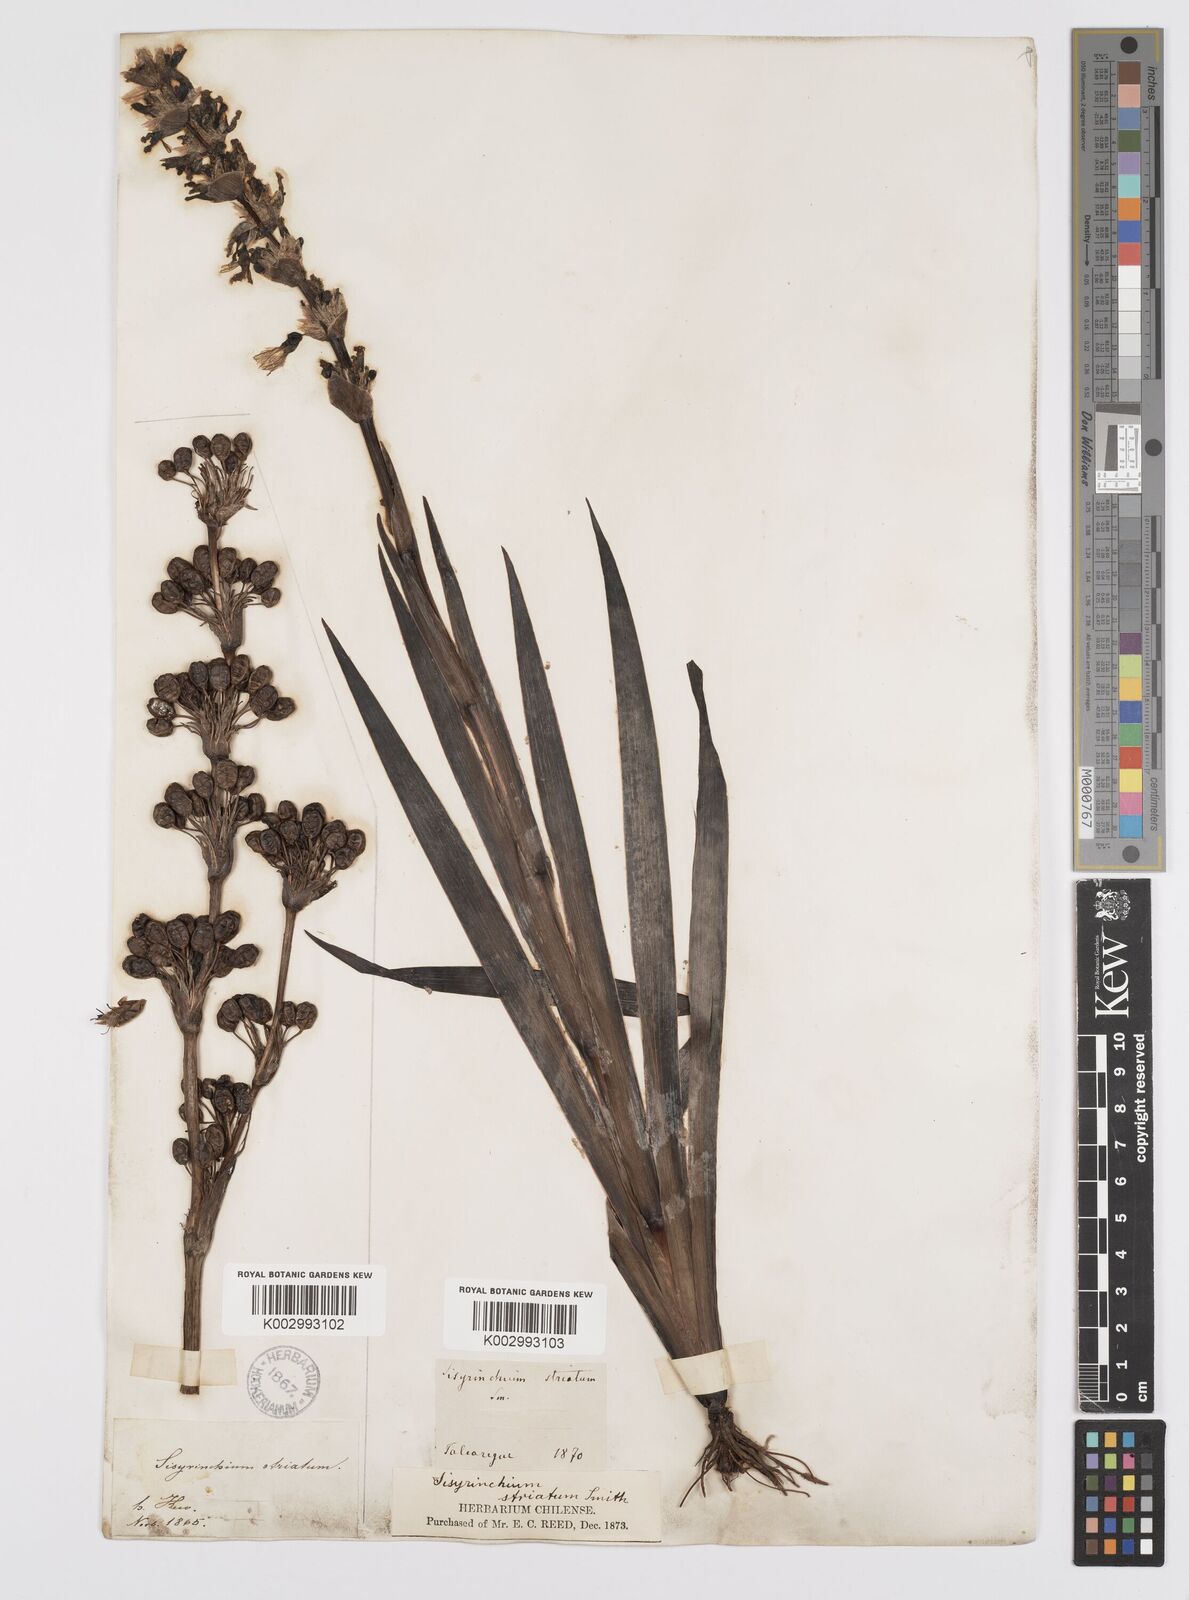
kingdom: Plantae
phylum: Tracheophyta
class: Liliopsida
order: Asparagales
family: Iridaceae
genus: Sisyrinchium
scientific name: Sisyrinchium striatum
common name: Pale yellow-eyed-grass
